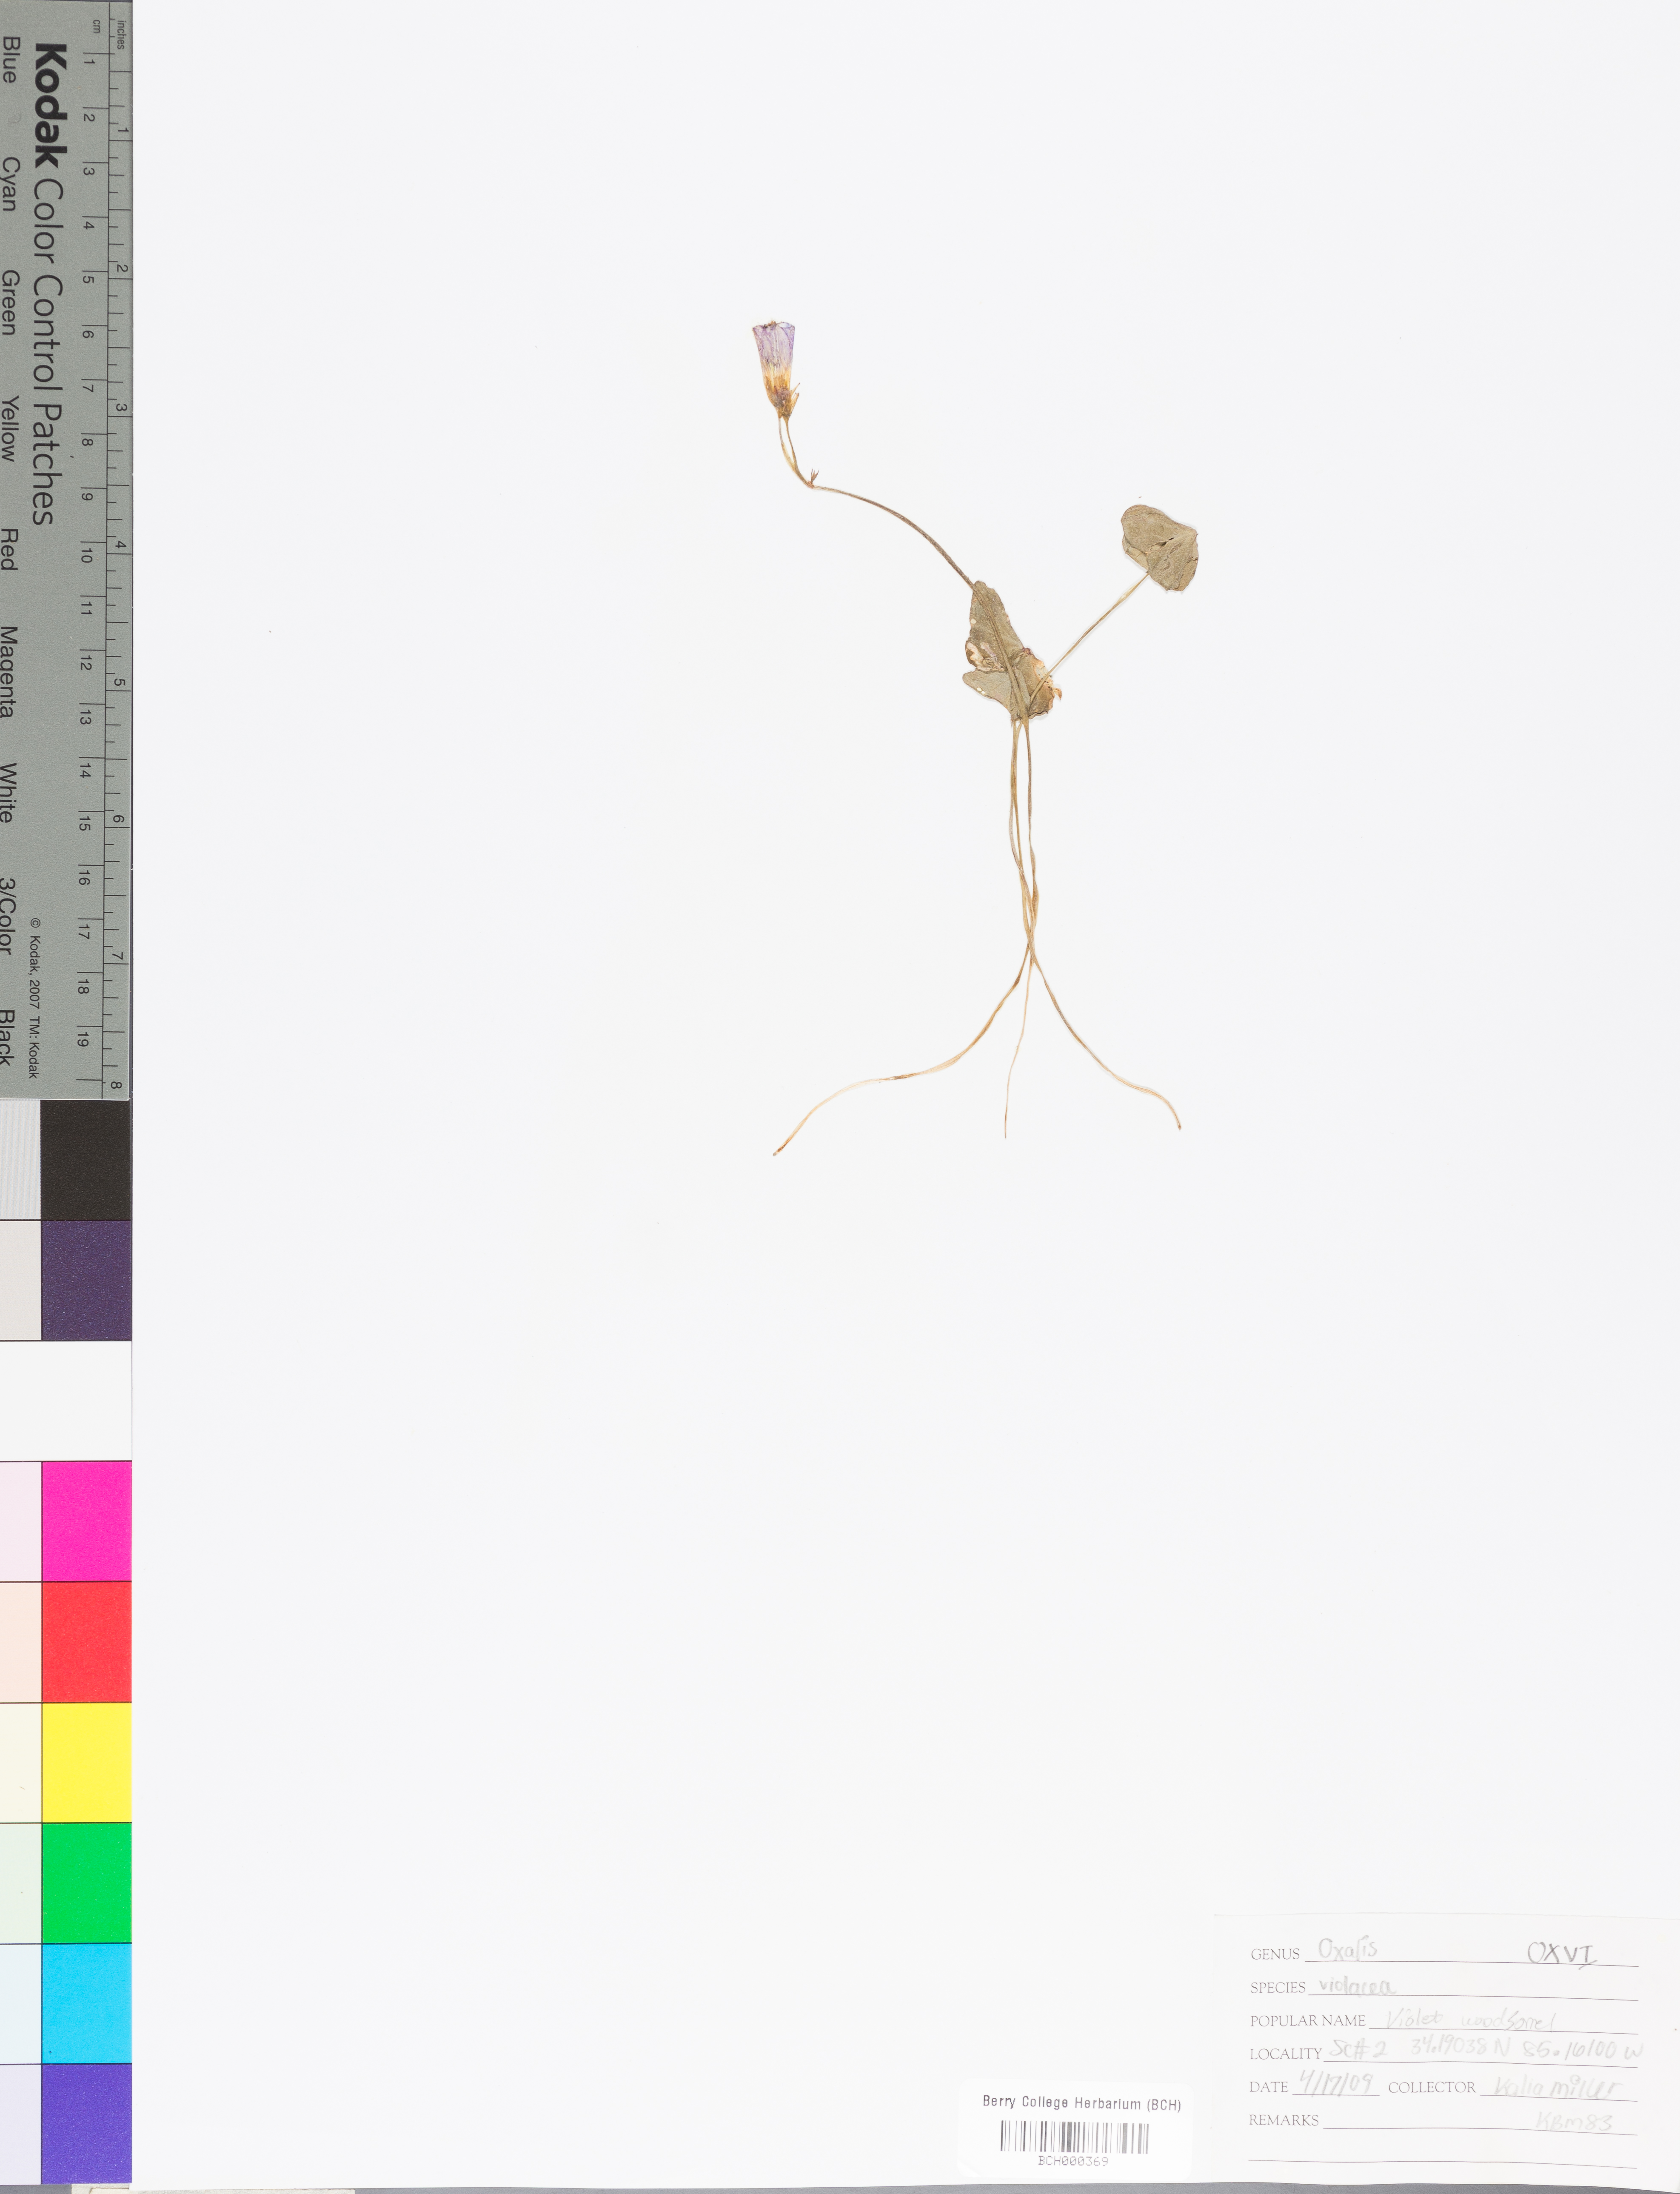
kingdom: Plantae
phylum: Tracheophyta
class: Magnoliopsida
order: Oxalidales
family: Oxalidaceae
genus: Oxalis
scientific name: Oxalis violacea
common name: Violet wood-sorrel
